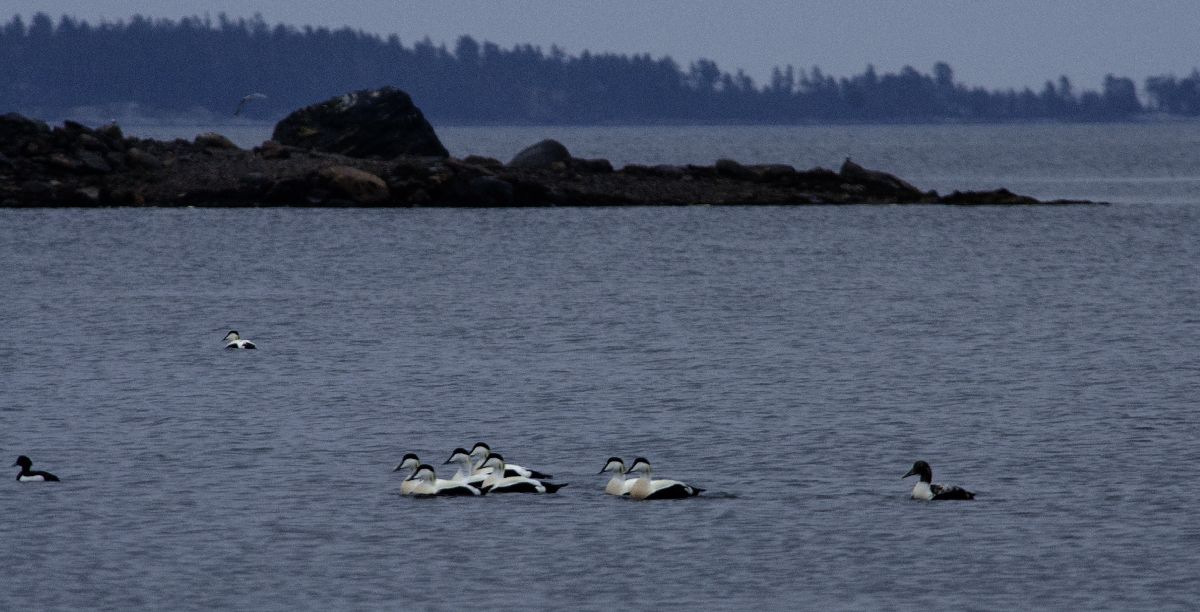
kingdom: Animalia
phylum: Chordata
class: Aves
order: Anseriformes
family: Anatidae
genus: Somateria
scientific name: Somateria mollissima
